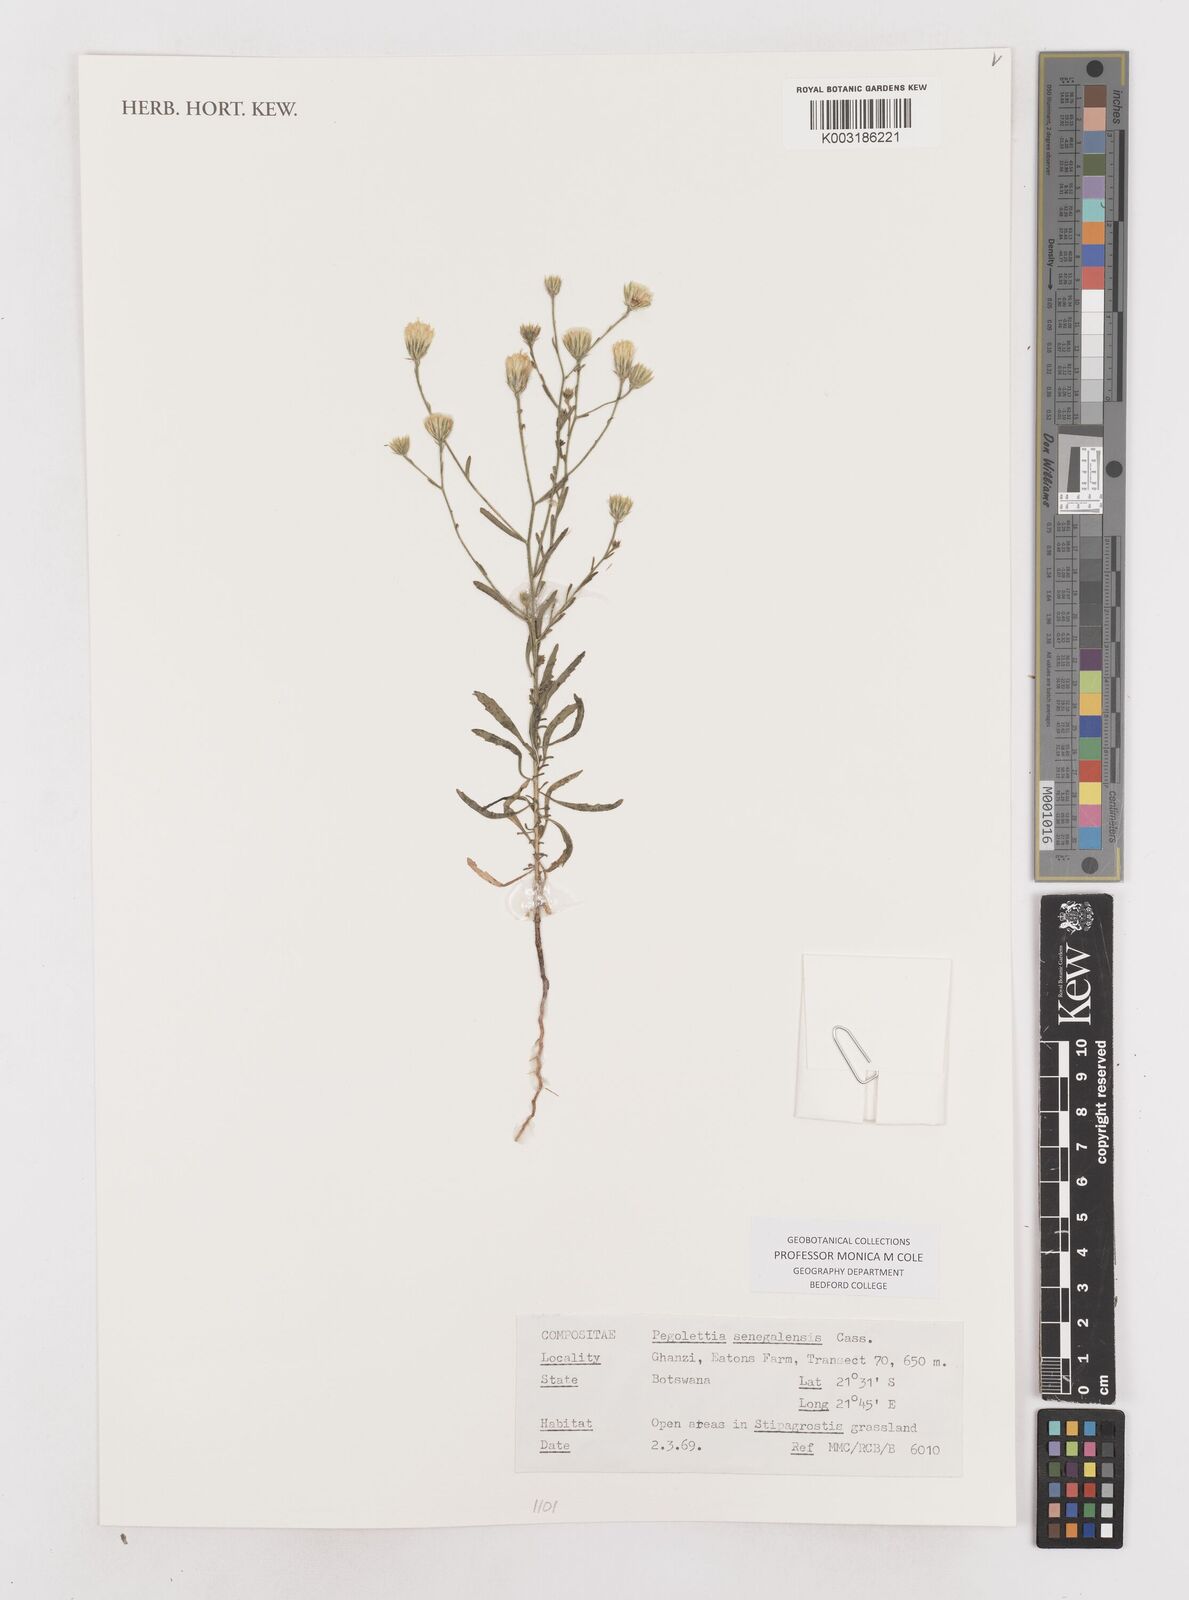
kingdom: Plantae
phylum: Tracheophyta
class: Magnoliopsida
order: Asterales
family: Asteraceae
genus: Pegolettia
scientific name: Pegolettia senegalensis
